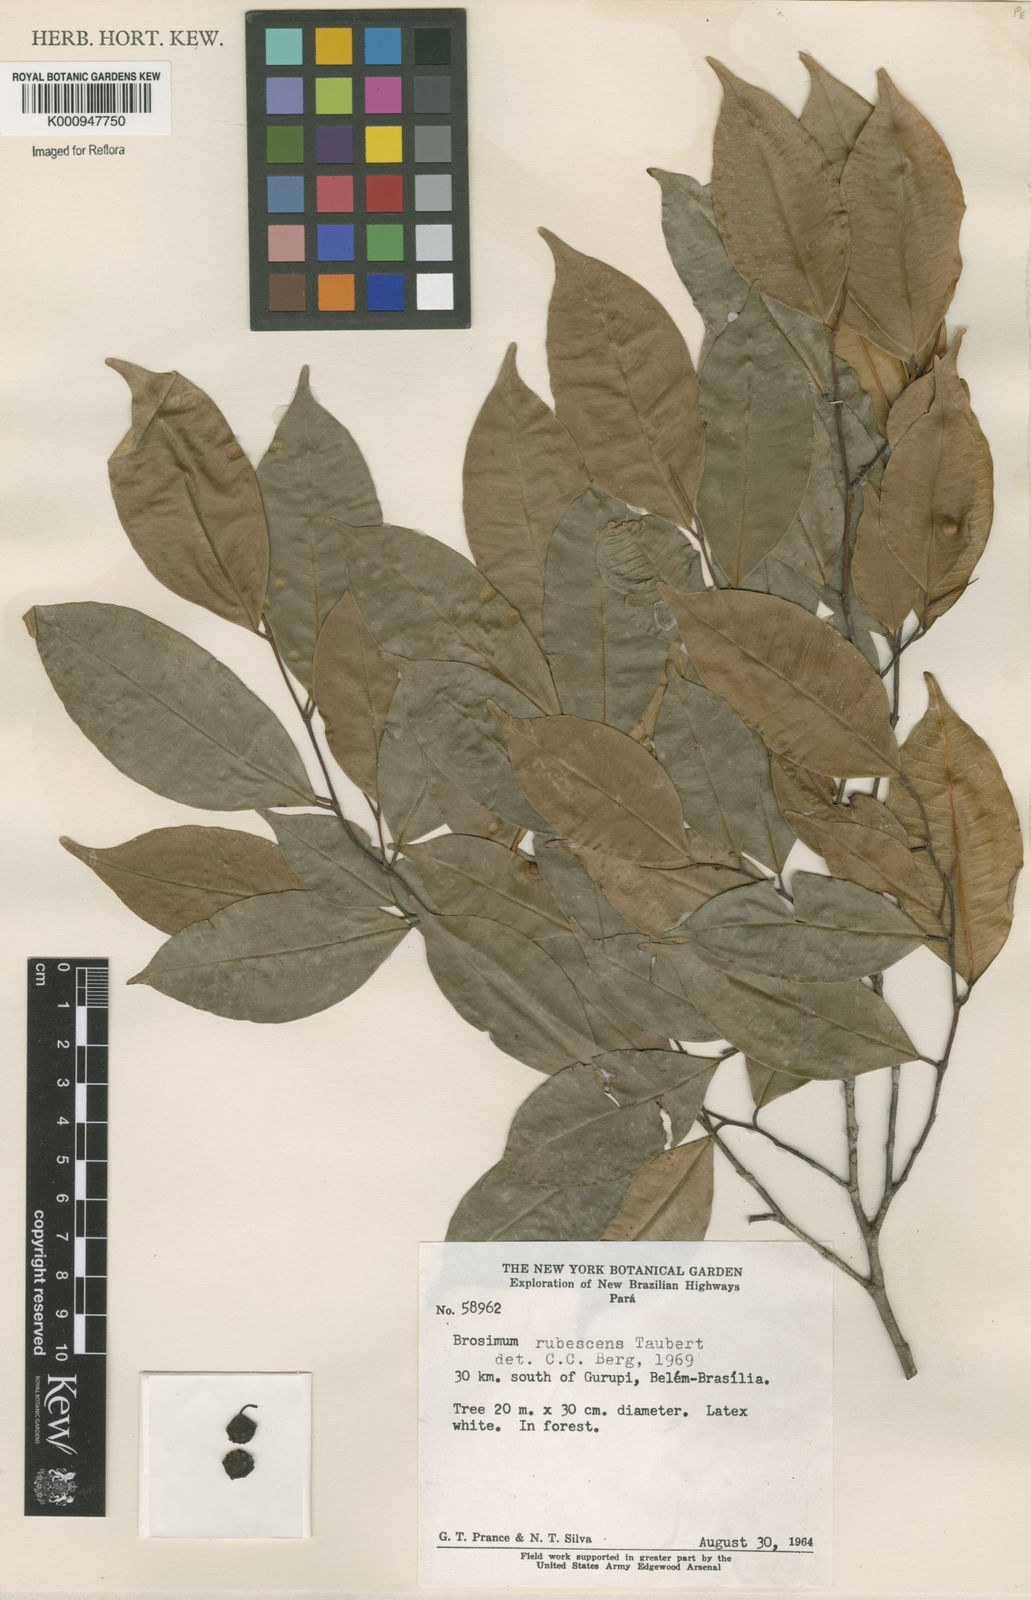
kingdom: Plantae
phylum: Tracheophyta
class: Magnoliopsida
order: Rosales
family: Moraceae
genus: Brosimum
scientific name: Brosimum rubescens
